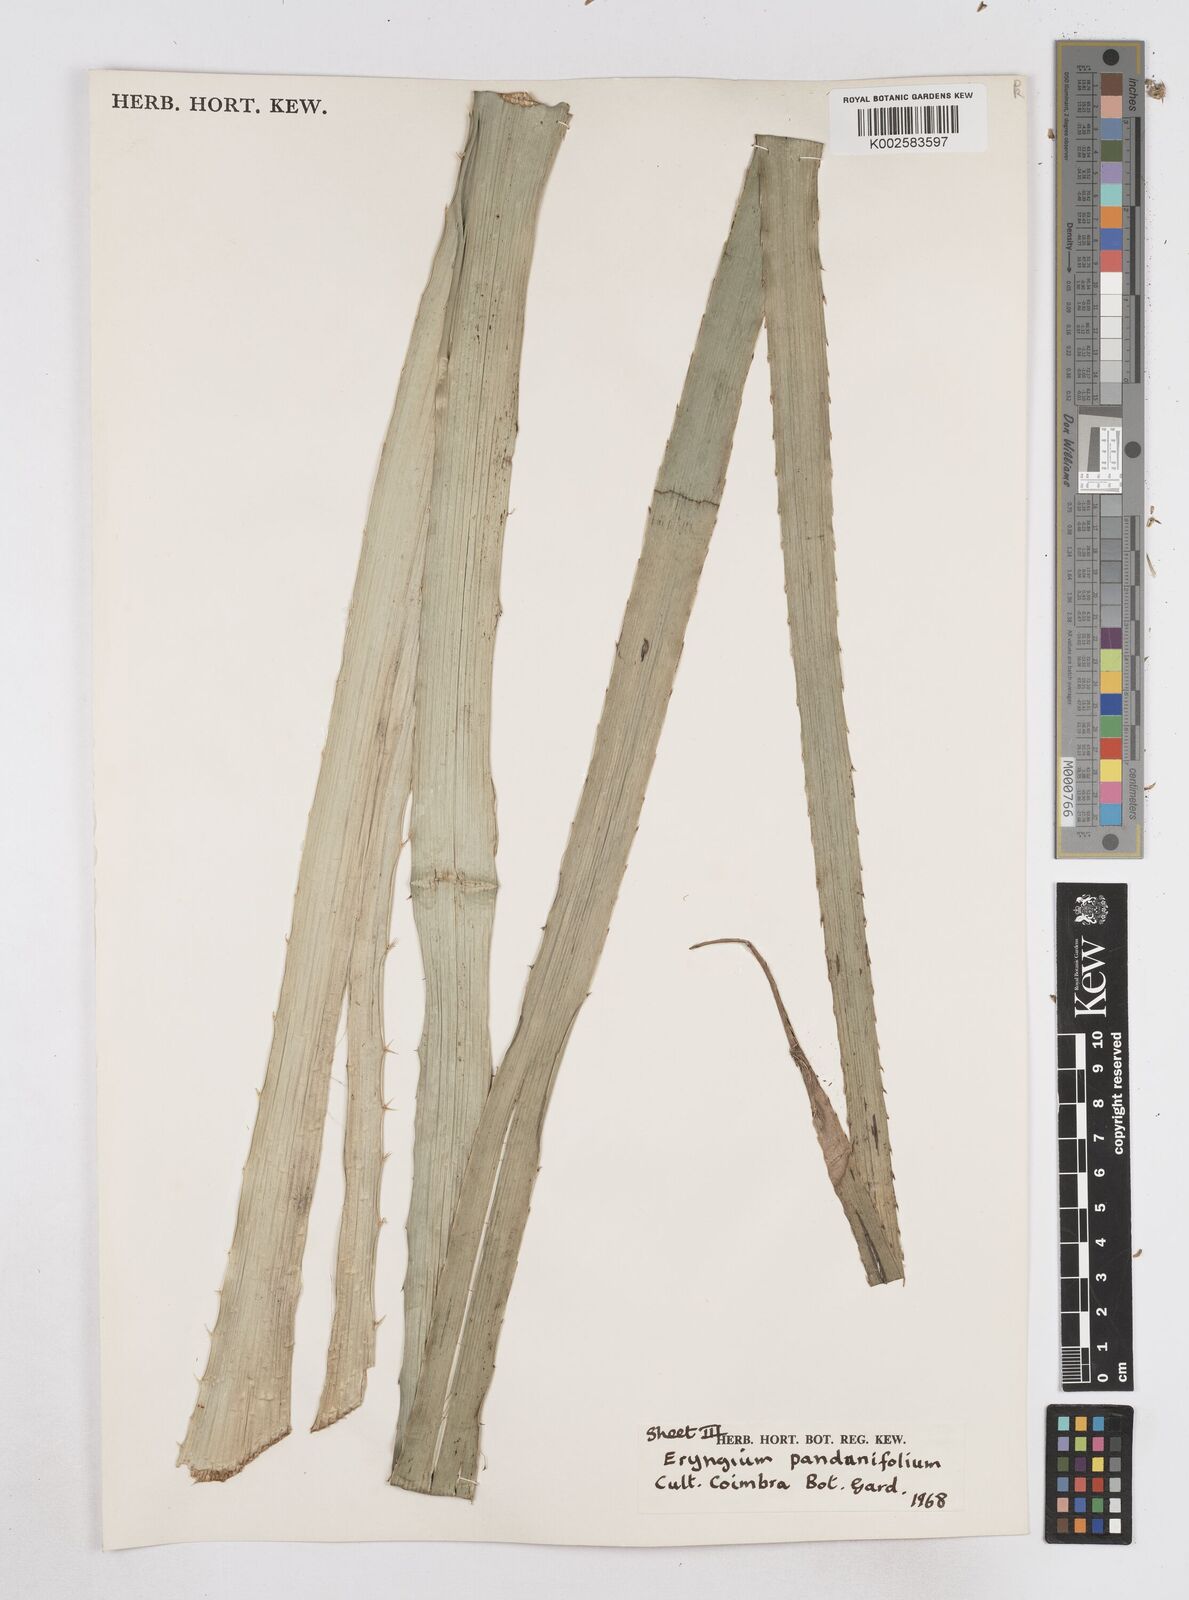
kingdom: Plantae
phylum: Tracheophyta
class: Magnoliopsida
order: Apiales
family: Apiaceae
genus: Eryngium
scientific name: Eryngium pandanifolium
